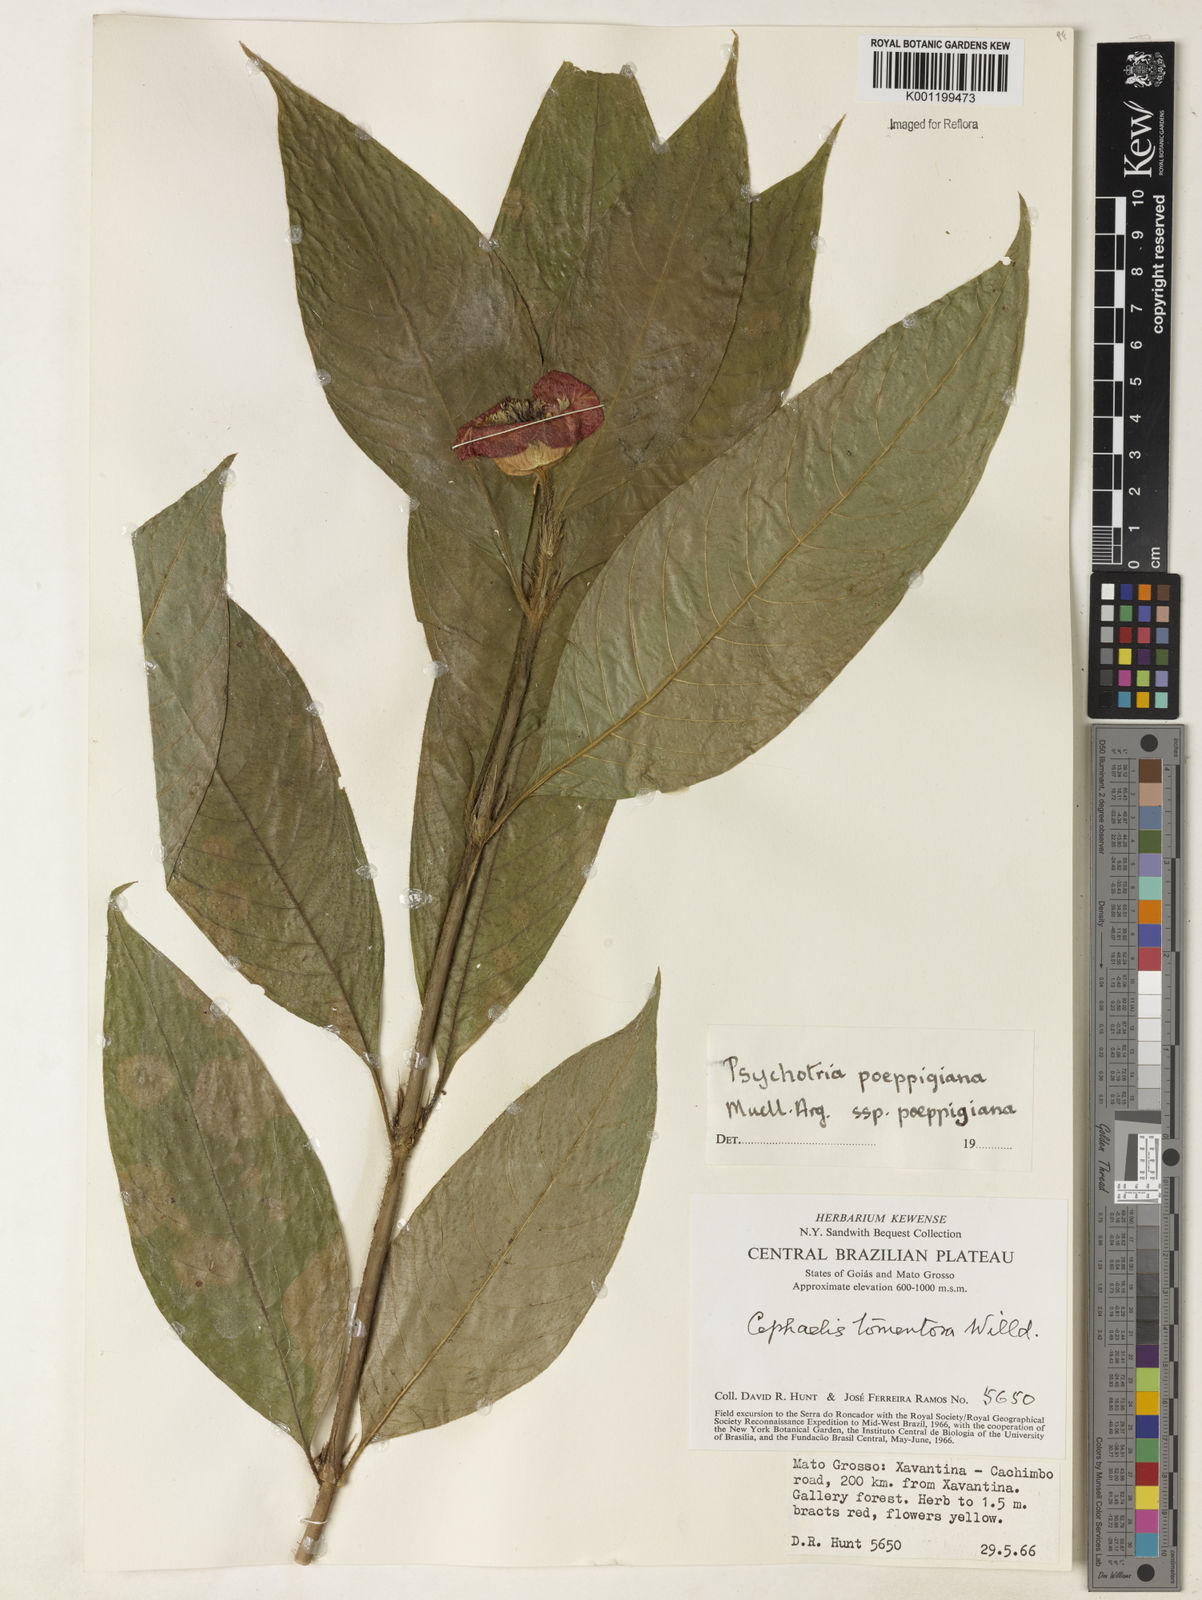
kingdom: Plantae
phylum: Tracheophyta
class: Magnoliopsida
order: Gentianales
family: Rubiaceae
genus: Psychotria
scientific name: Psychotria
